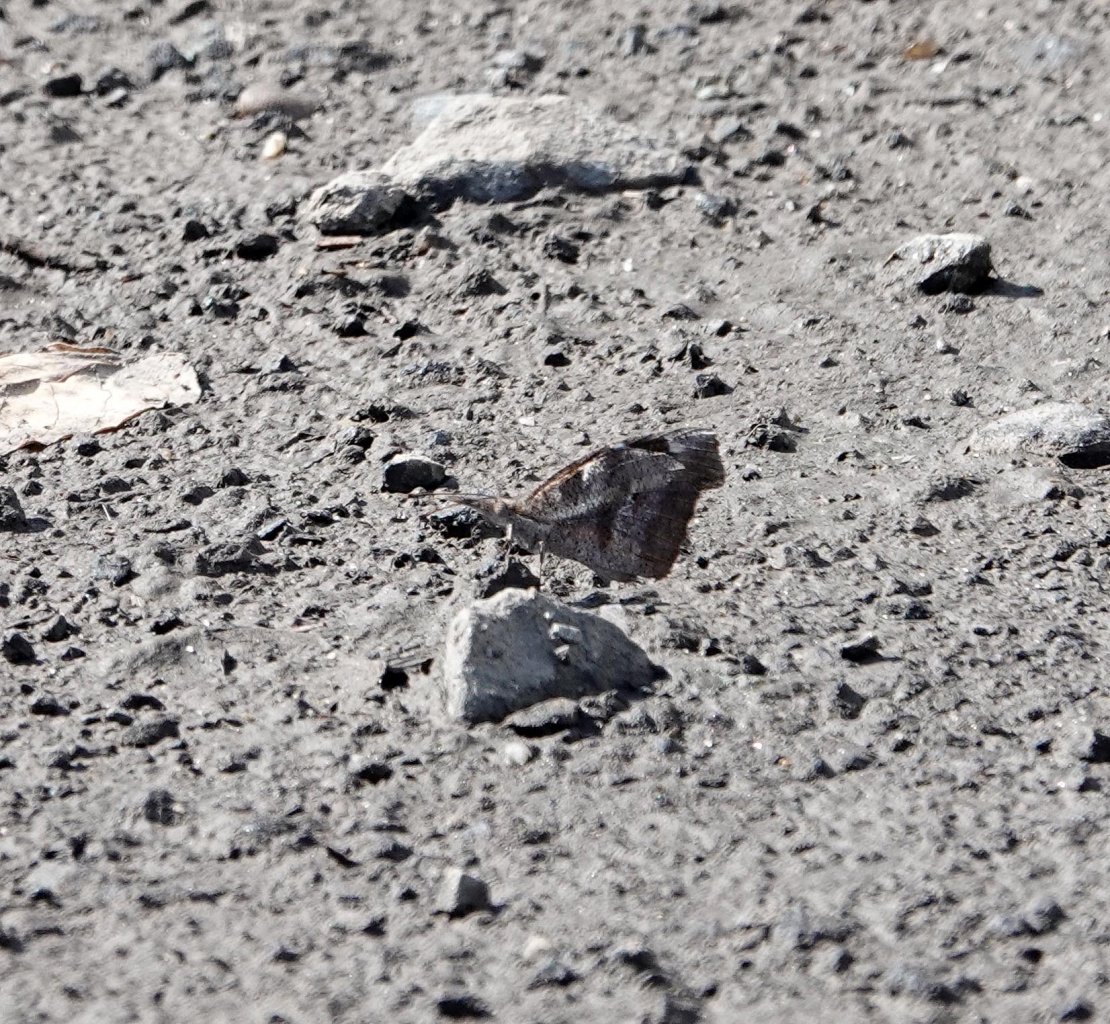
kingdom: Animalia
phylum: Arthropoda
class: Insecta
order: Lepidoptera
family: Nymphalidae
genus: Libytheana
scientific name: Libytheana carinenta
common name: American Snout
